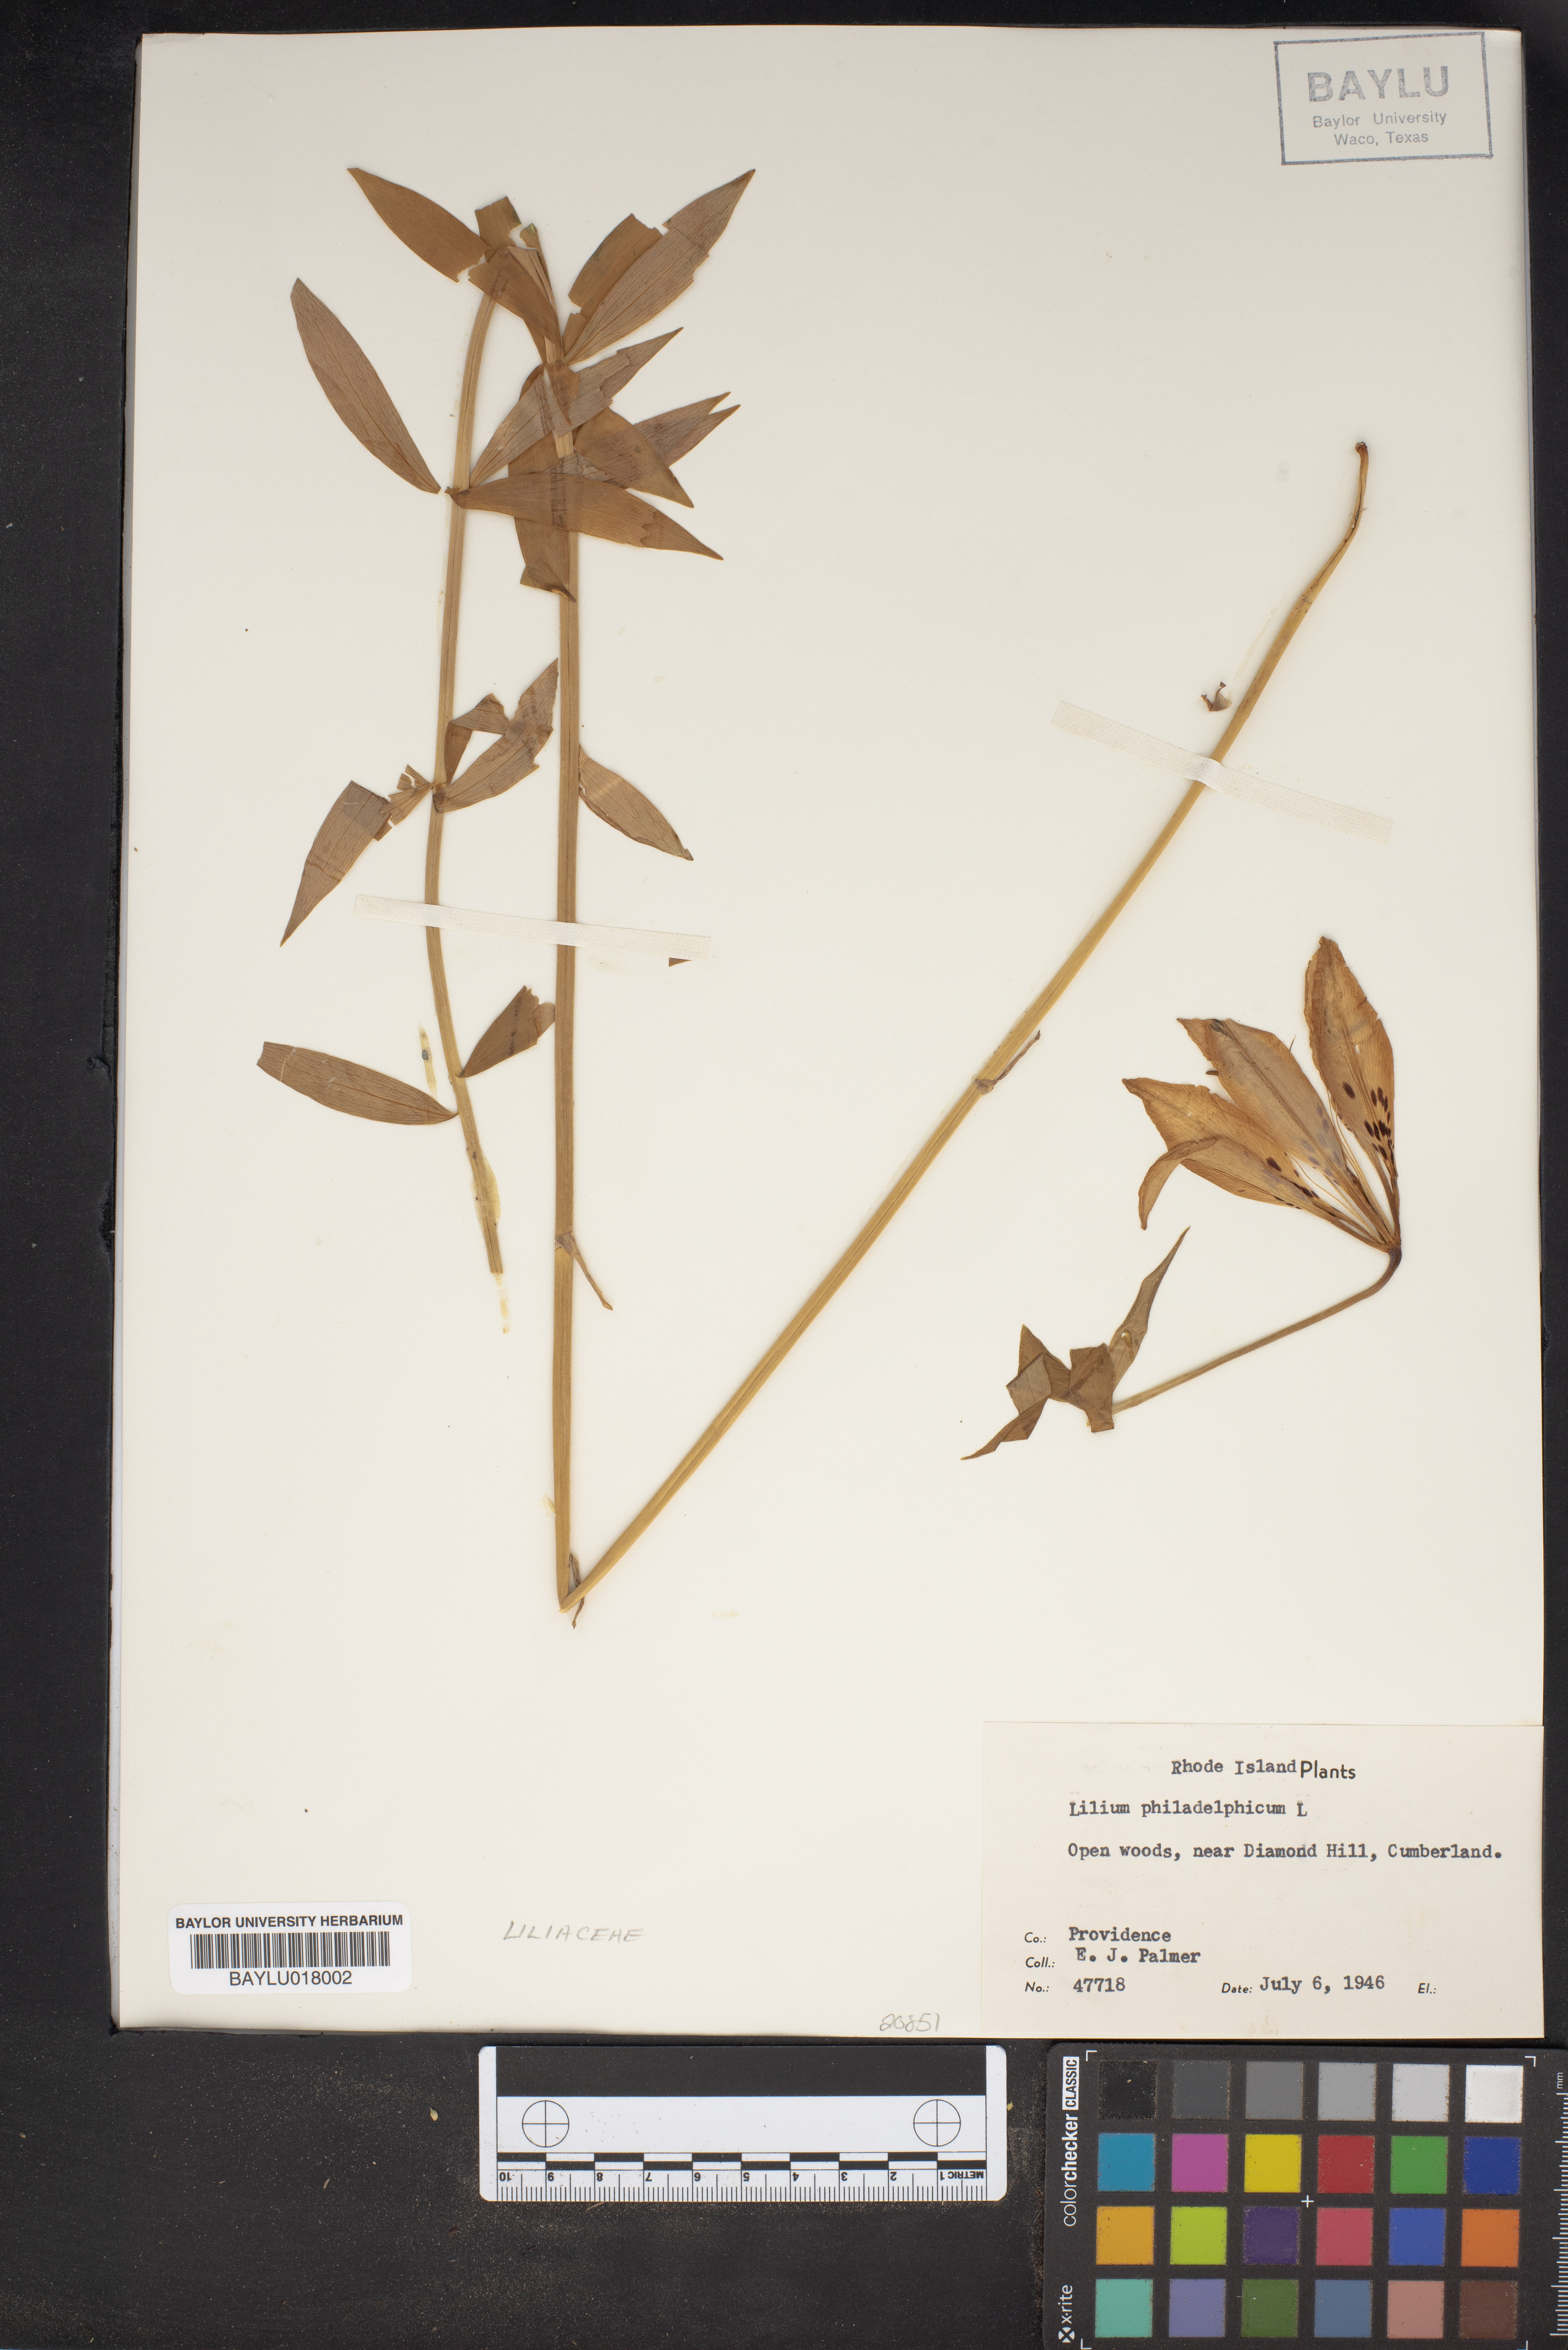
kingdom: Plantae
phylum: Tracheophyta
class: Liliopsida
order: Liliales
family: Liliaceae
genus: Lilium
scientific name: Lilium philadelphicum
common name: Red lily
